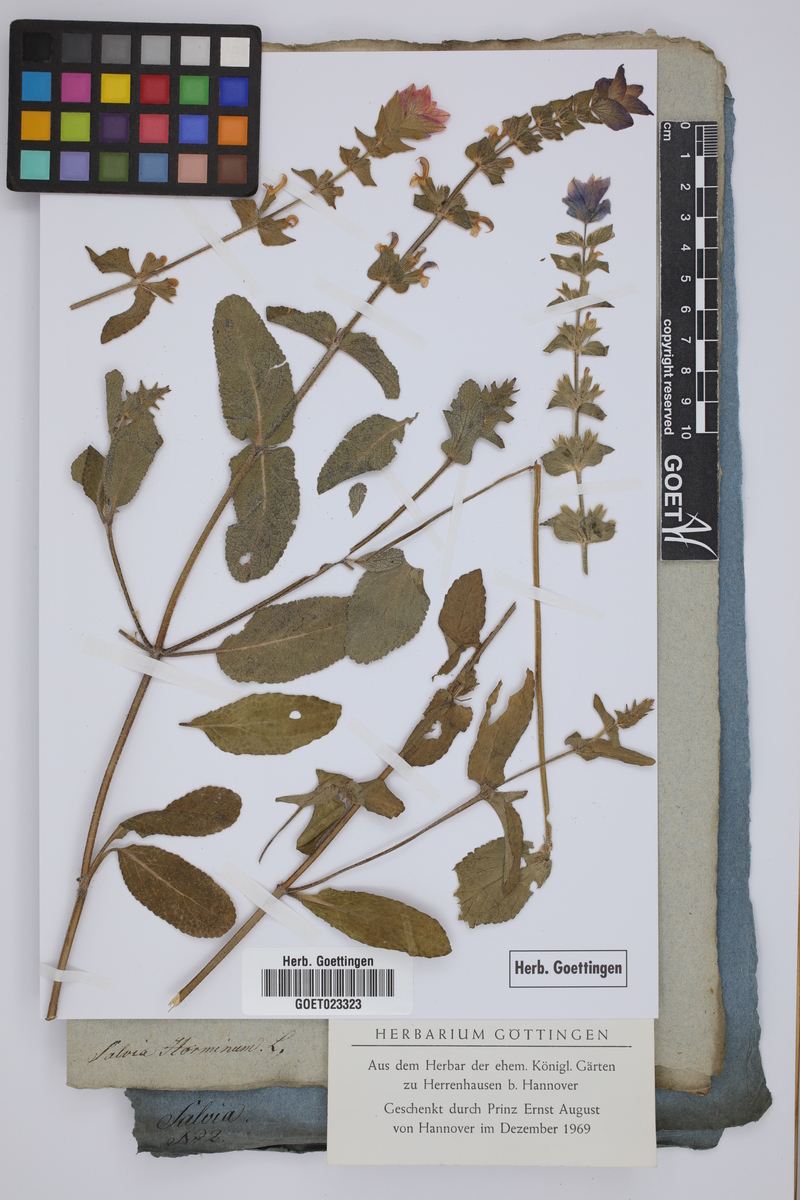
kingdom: Plantae
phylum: Tracheophyta
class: Magnoliopsida
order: Lamiales
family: Lamiaceae
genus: Salvia
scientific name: Salvia viridis
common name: Annual clary
